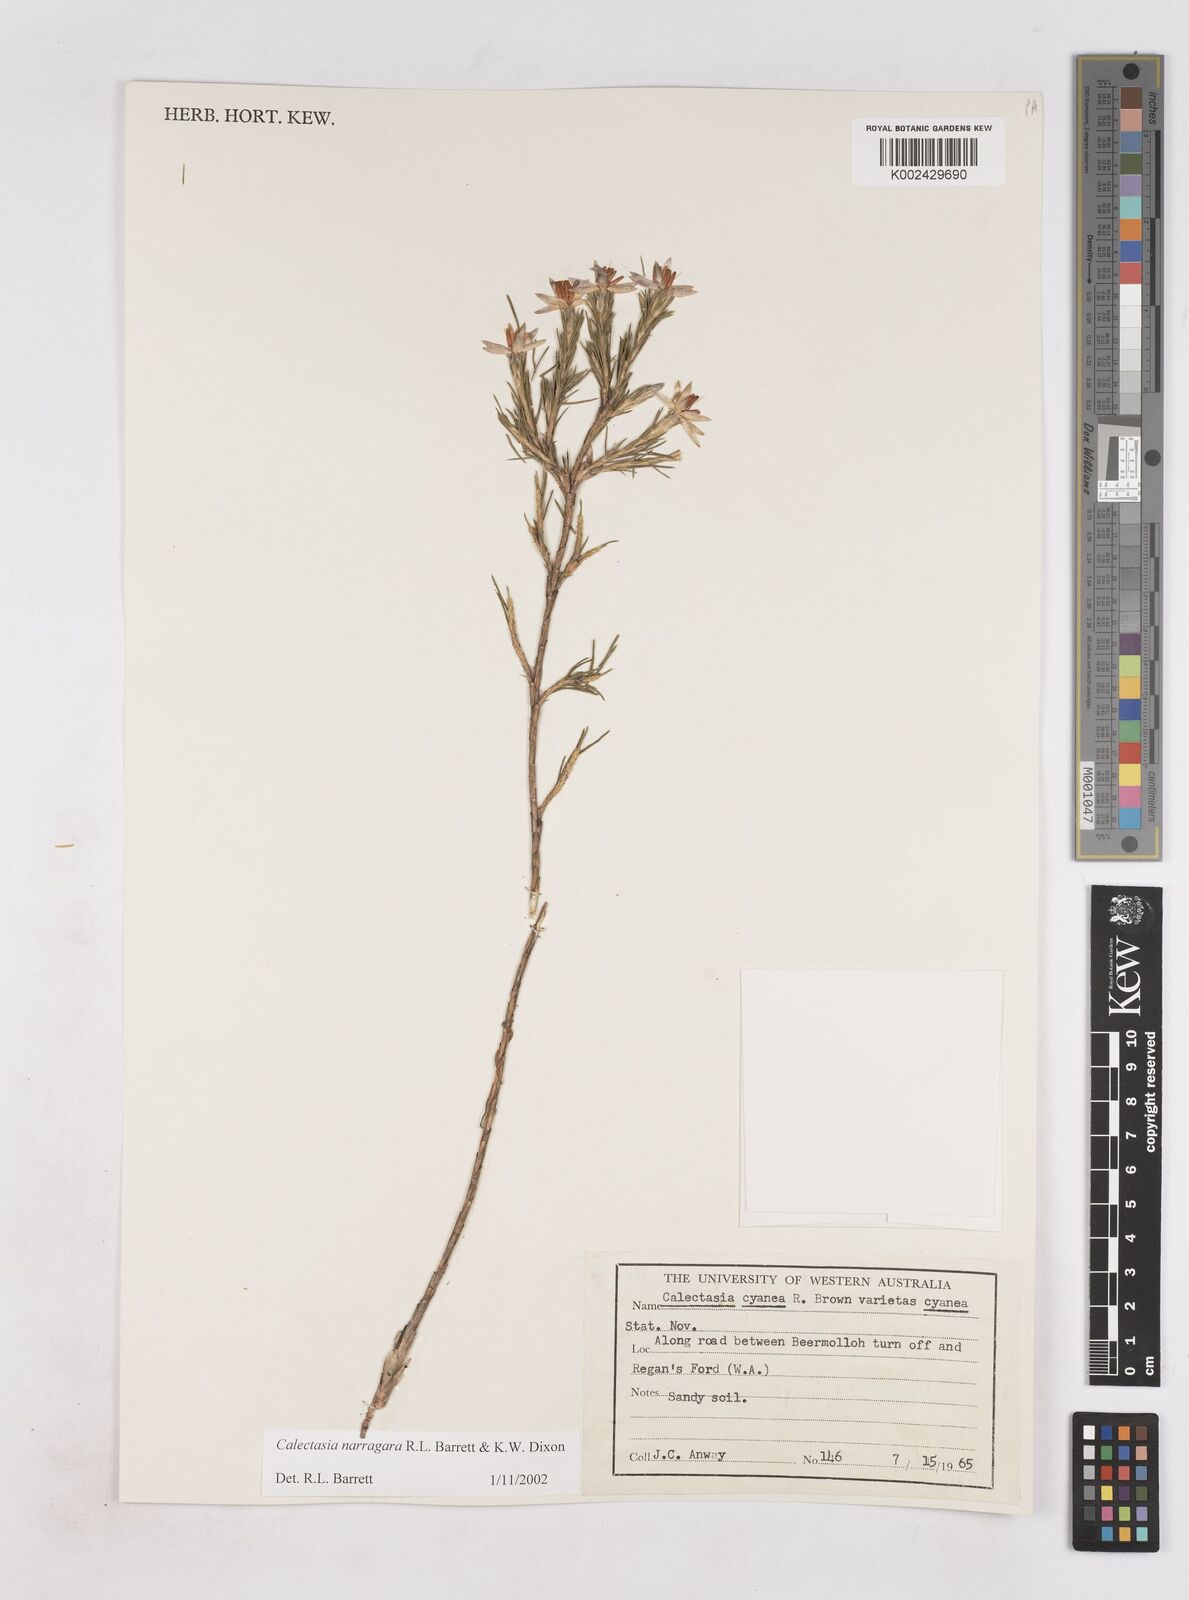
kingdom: Plantae
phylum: Tracheophyta
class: Liliopsida
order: Arecales
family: Dasypogonaceae
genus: Calectasia
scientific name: Calectasia narragara
